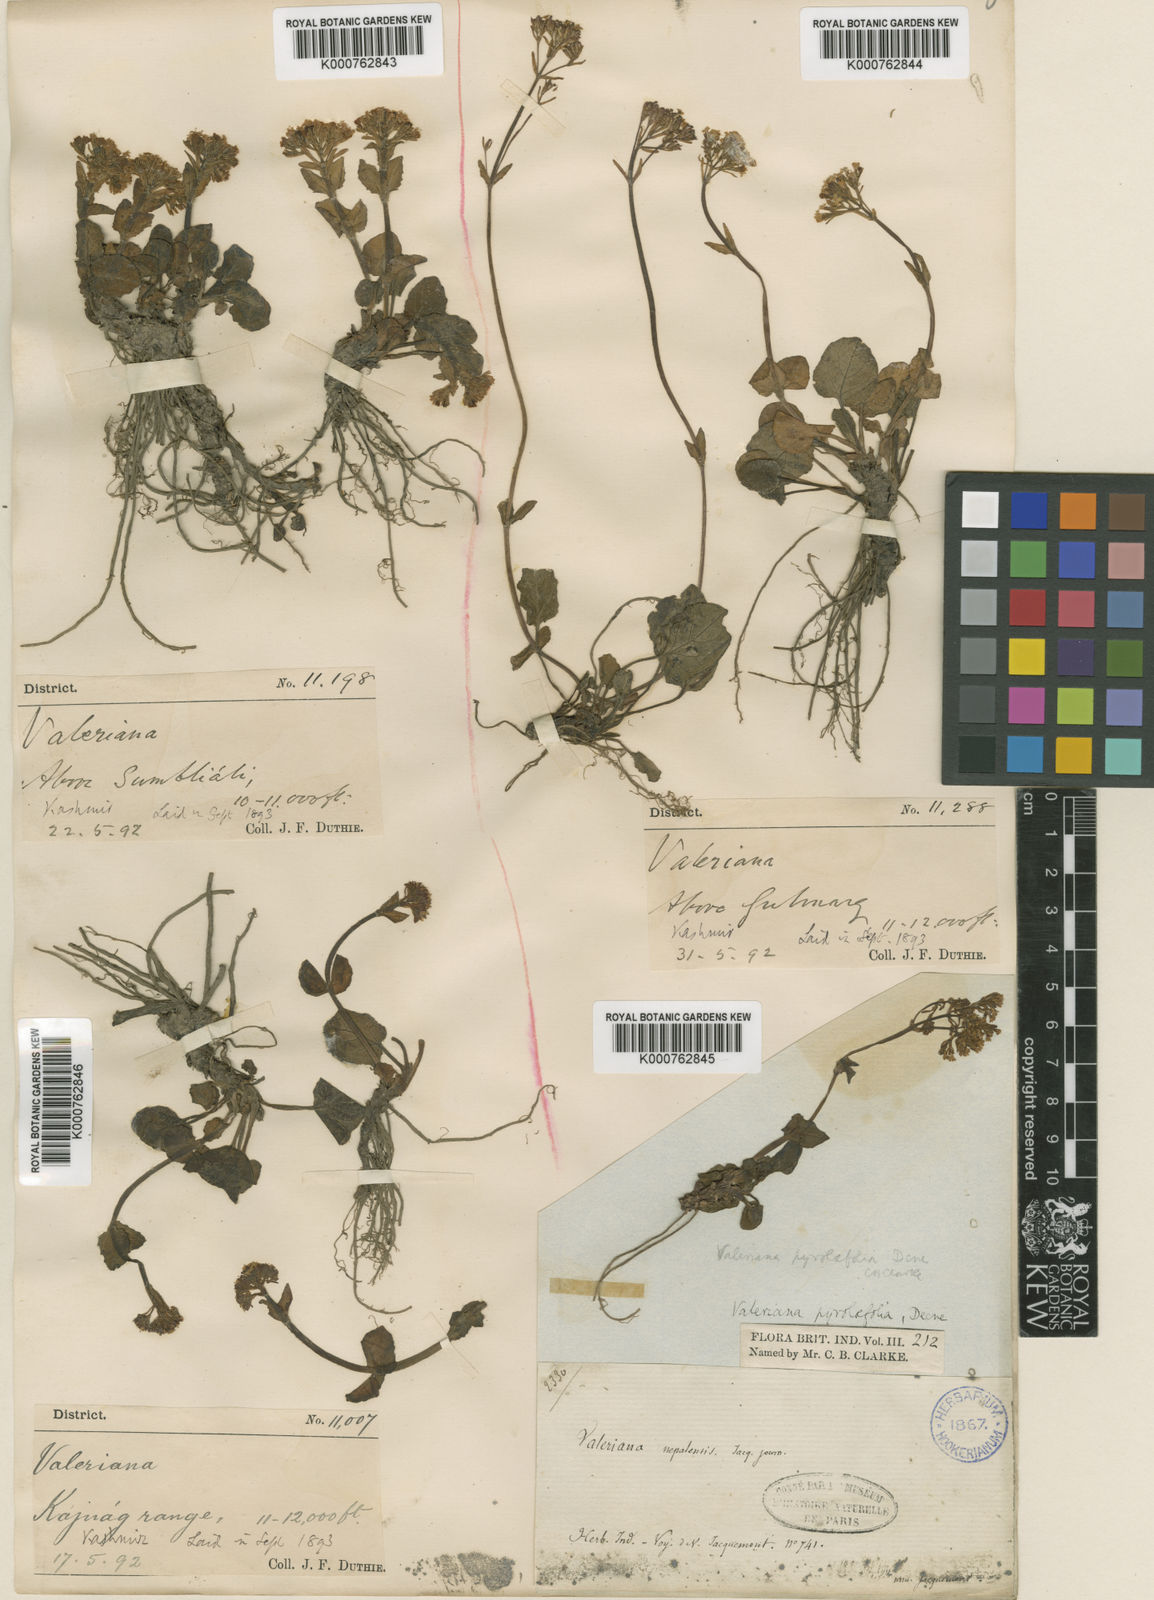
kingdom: Plantae
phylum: Tracheophyta
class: Magnoliopsida
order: Dipsacales
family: Caprifoliaceae
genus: Valeriana
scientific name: Valeriana pyrolifolia
